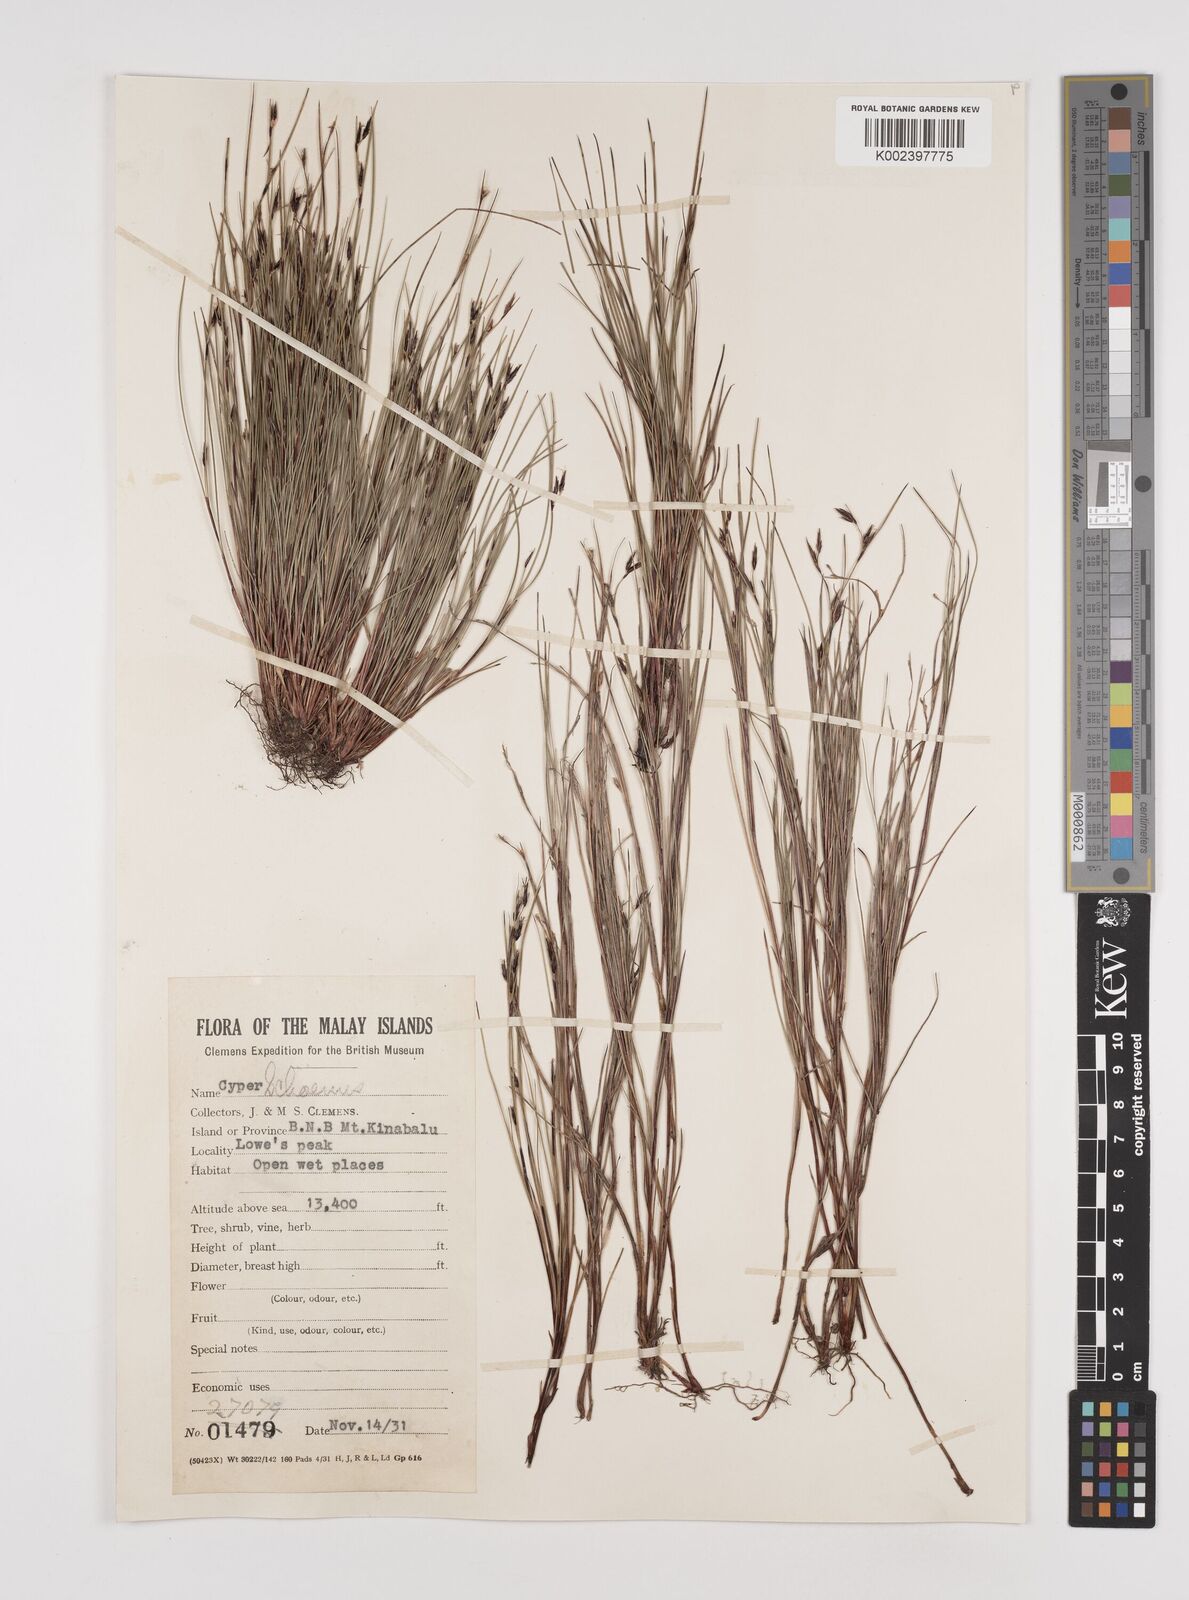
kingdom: Plantae
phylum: Tracheophyta
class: Liliopsida
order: Poales
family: Cyperaceae
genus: Schoenus
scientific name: Schoenus curvulus
